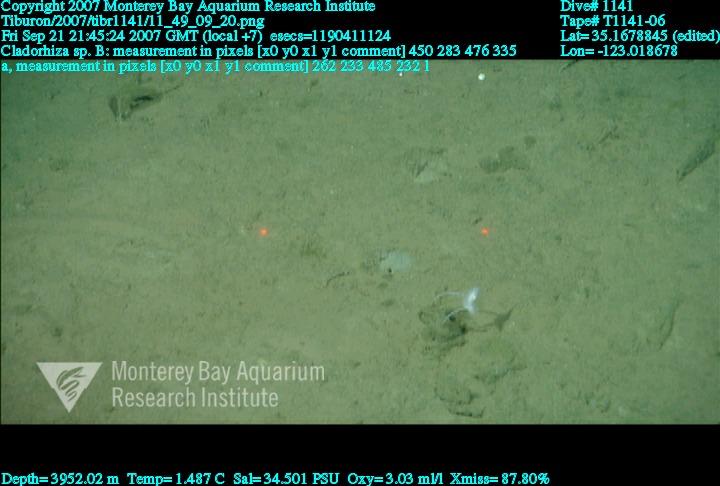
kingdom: Animalia
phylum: Porifera
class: Demospongiae
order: Poecilosclerida
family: Cladorhizidae
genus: Cladorhiza
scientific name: Cladorhiza
